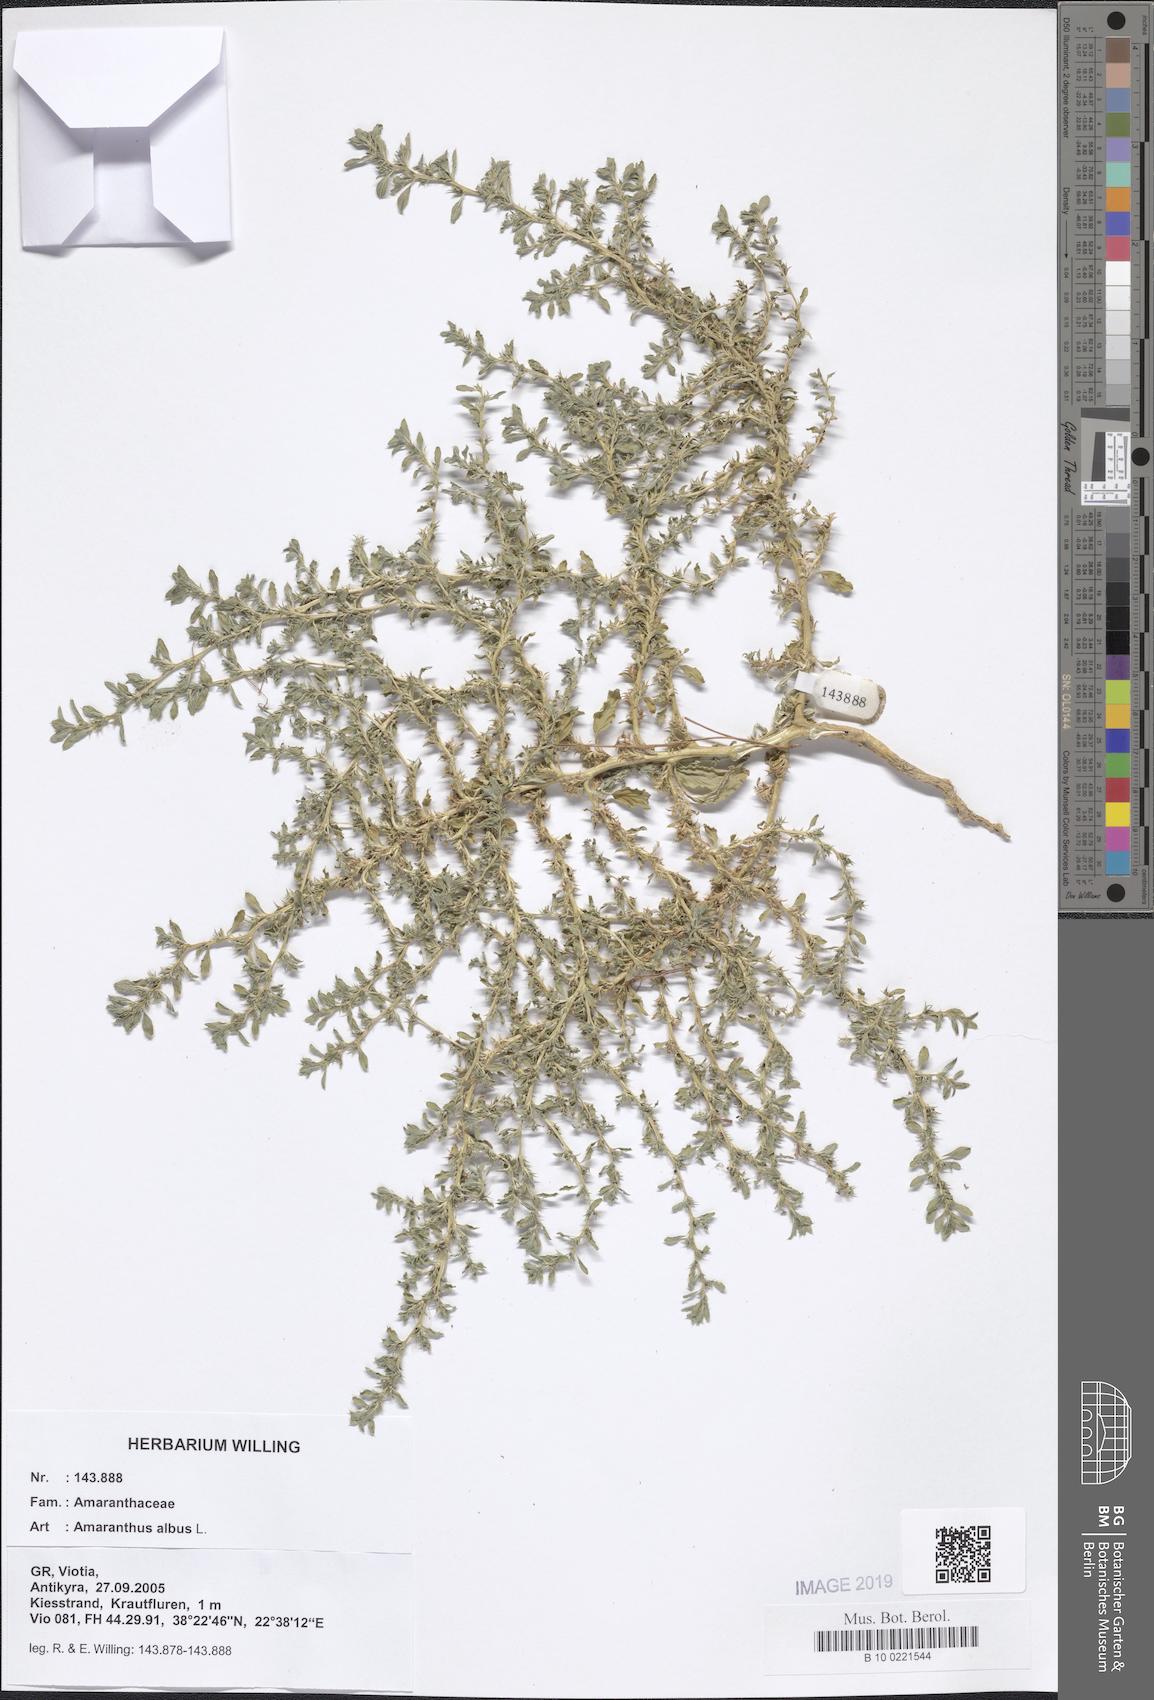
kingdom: Plantae
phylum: Tracheophyta
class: Magnoliopsida
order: Caryophyllales
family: Amaranthaceae
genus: Amaranthus
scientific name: Amaranthus albus
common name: White pigweed
